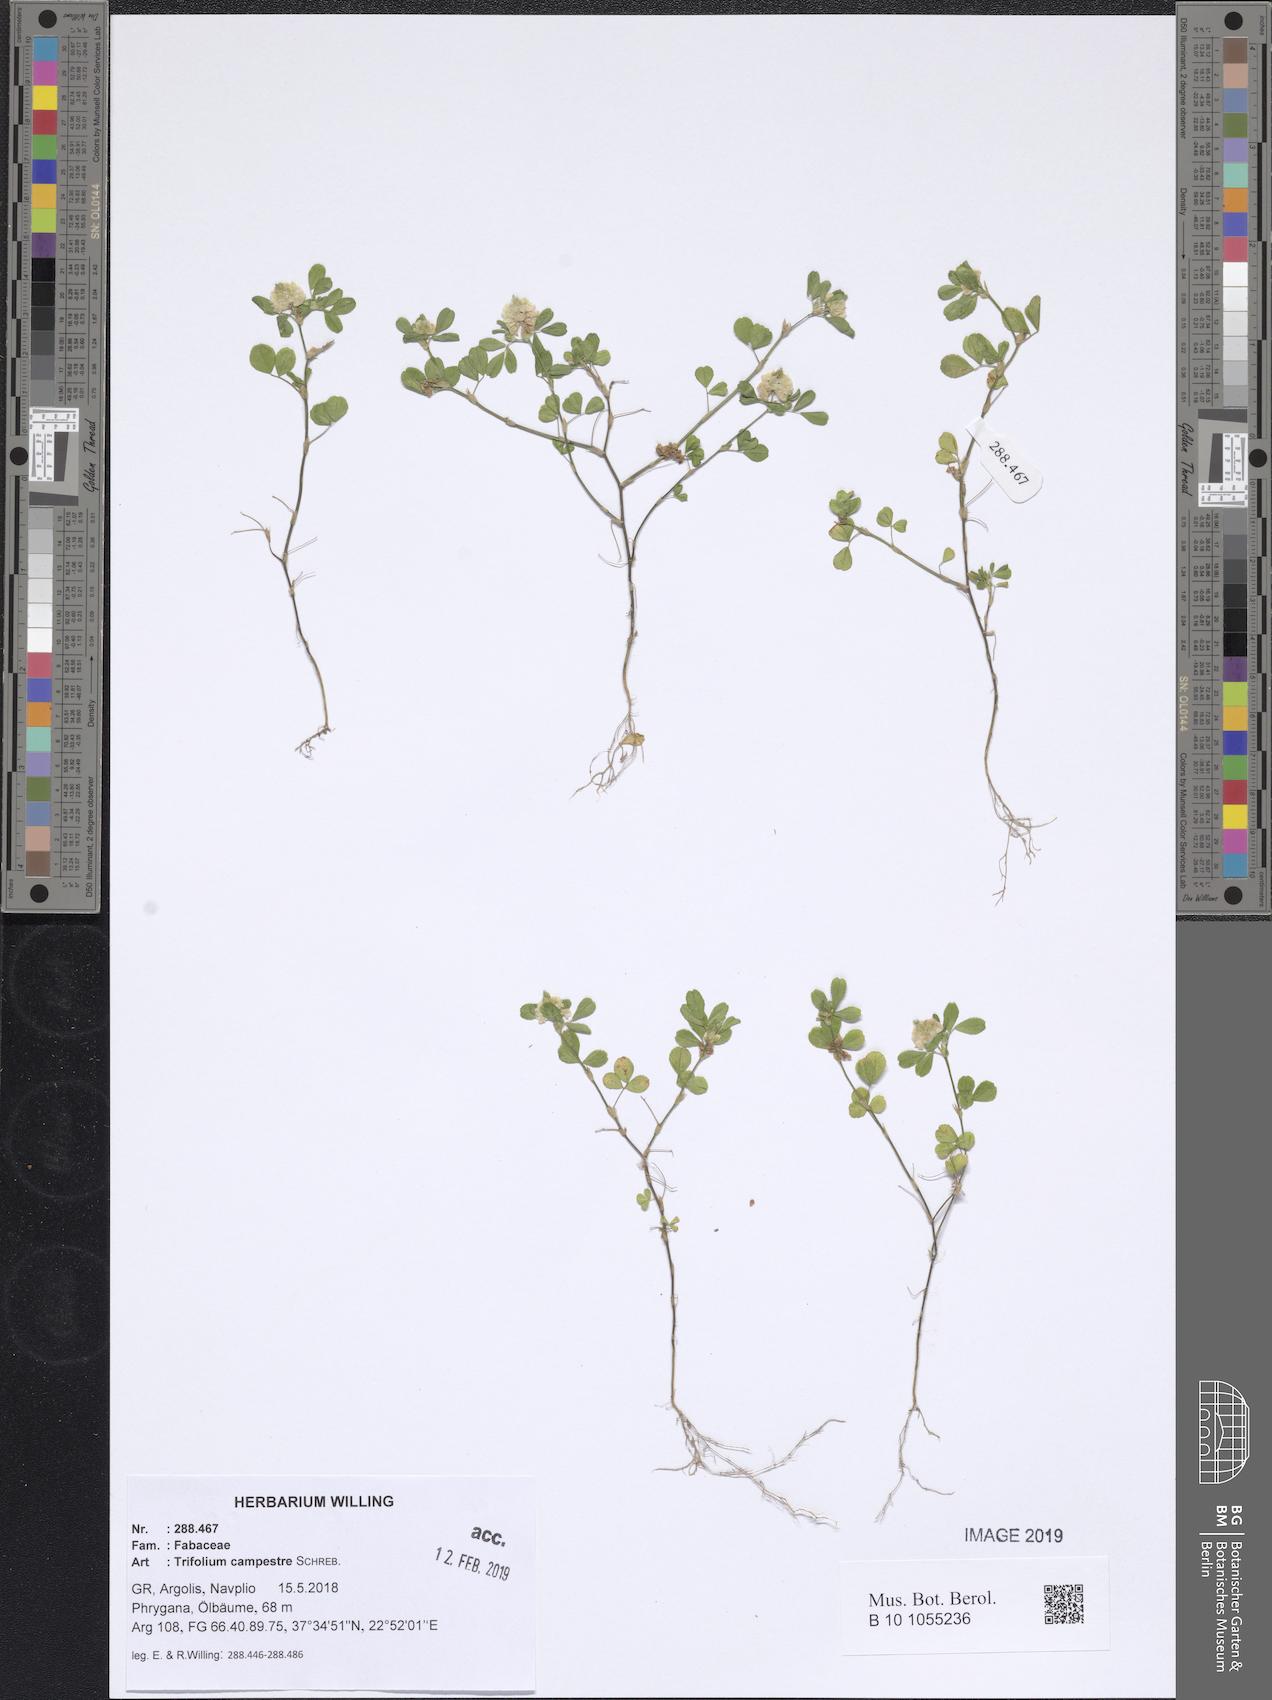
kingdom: Plantae
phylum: Tracheophyta
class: Magnoliopsida
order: Fabales
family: Fabaceae
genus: Trifolium
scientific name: Trifolium campestre
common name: Field clover
